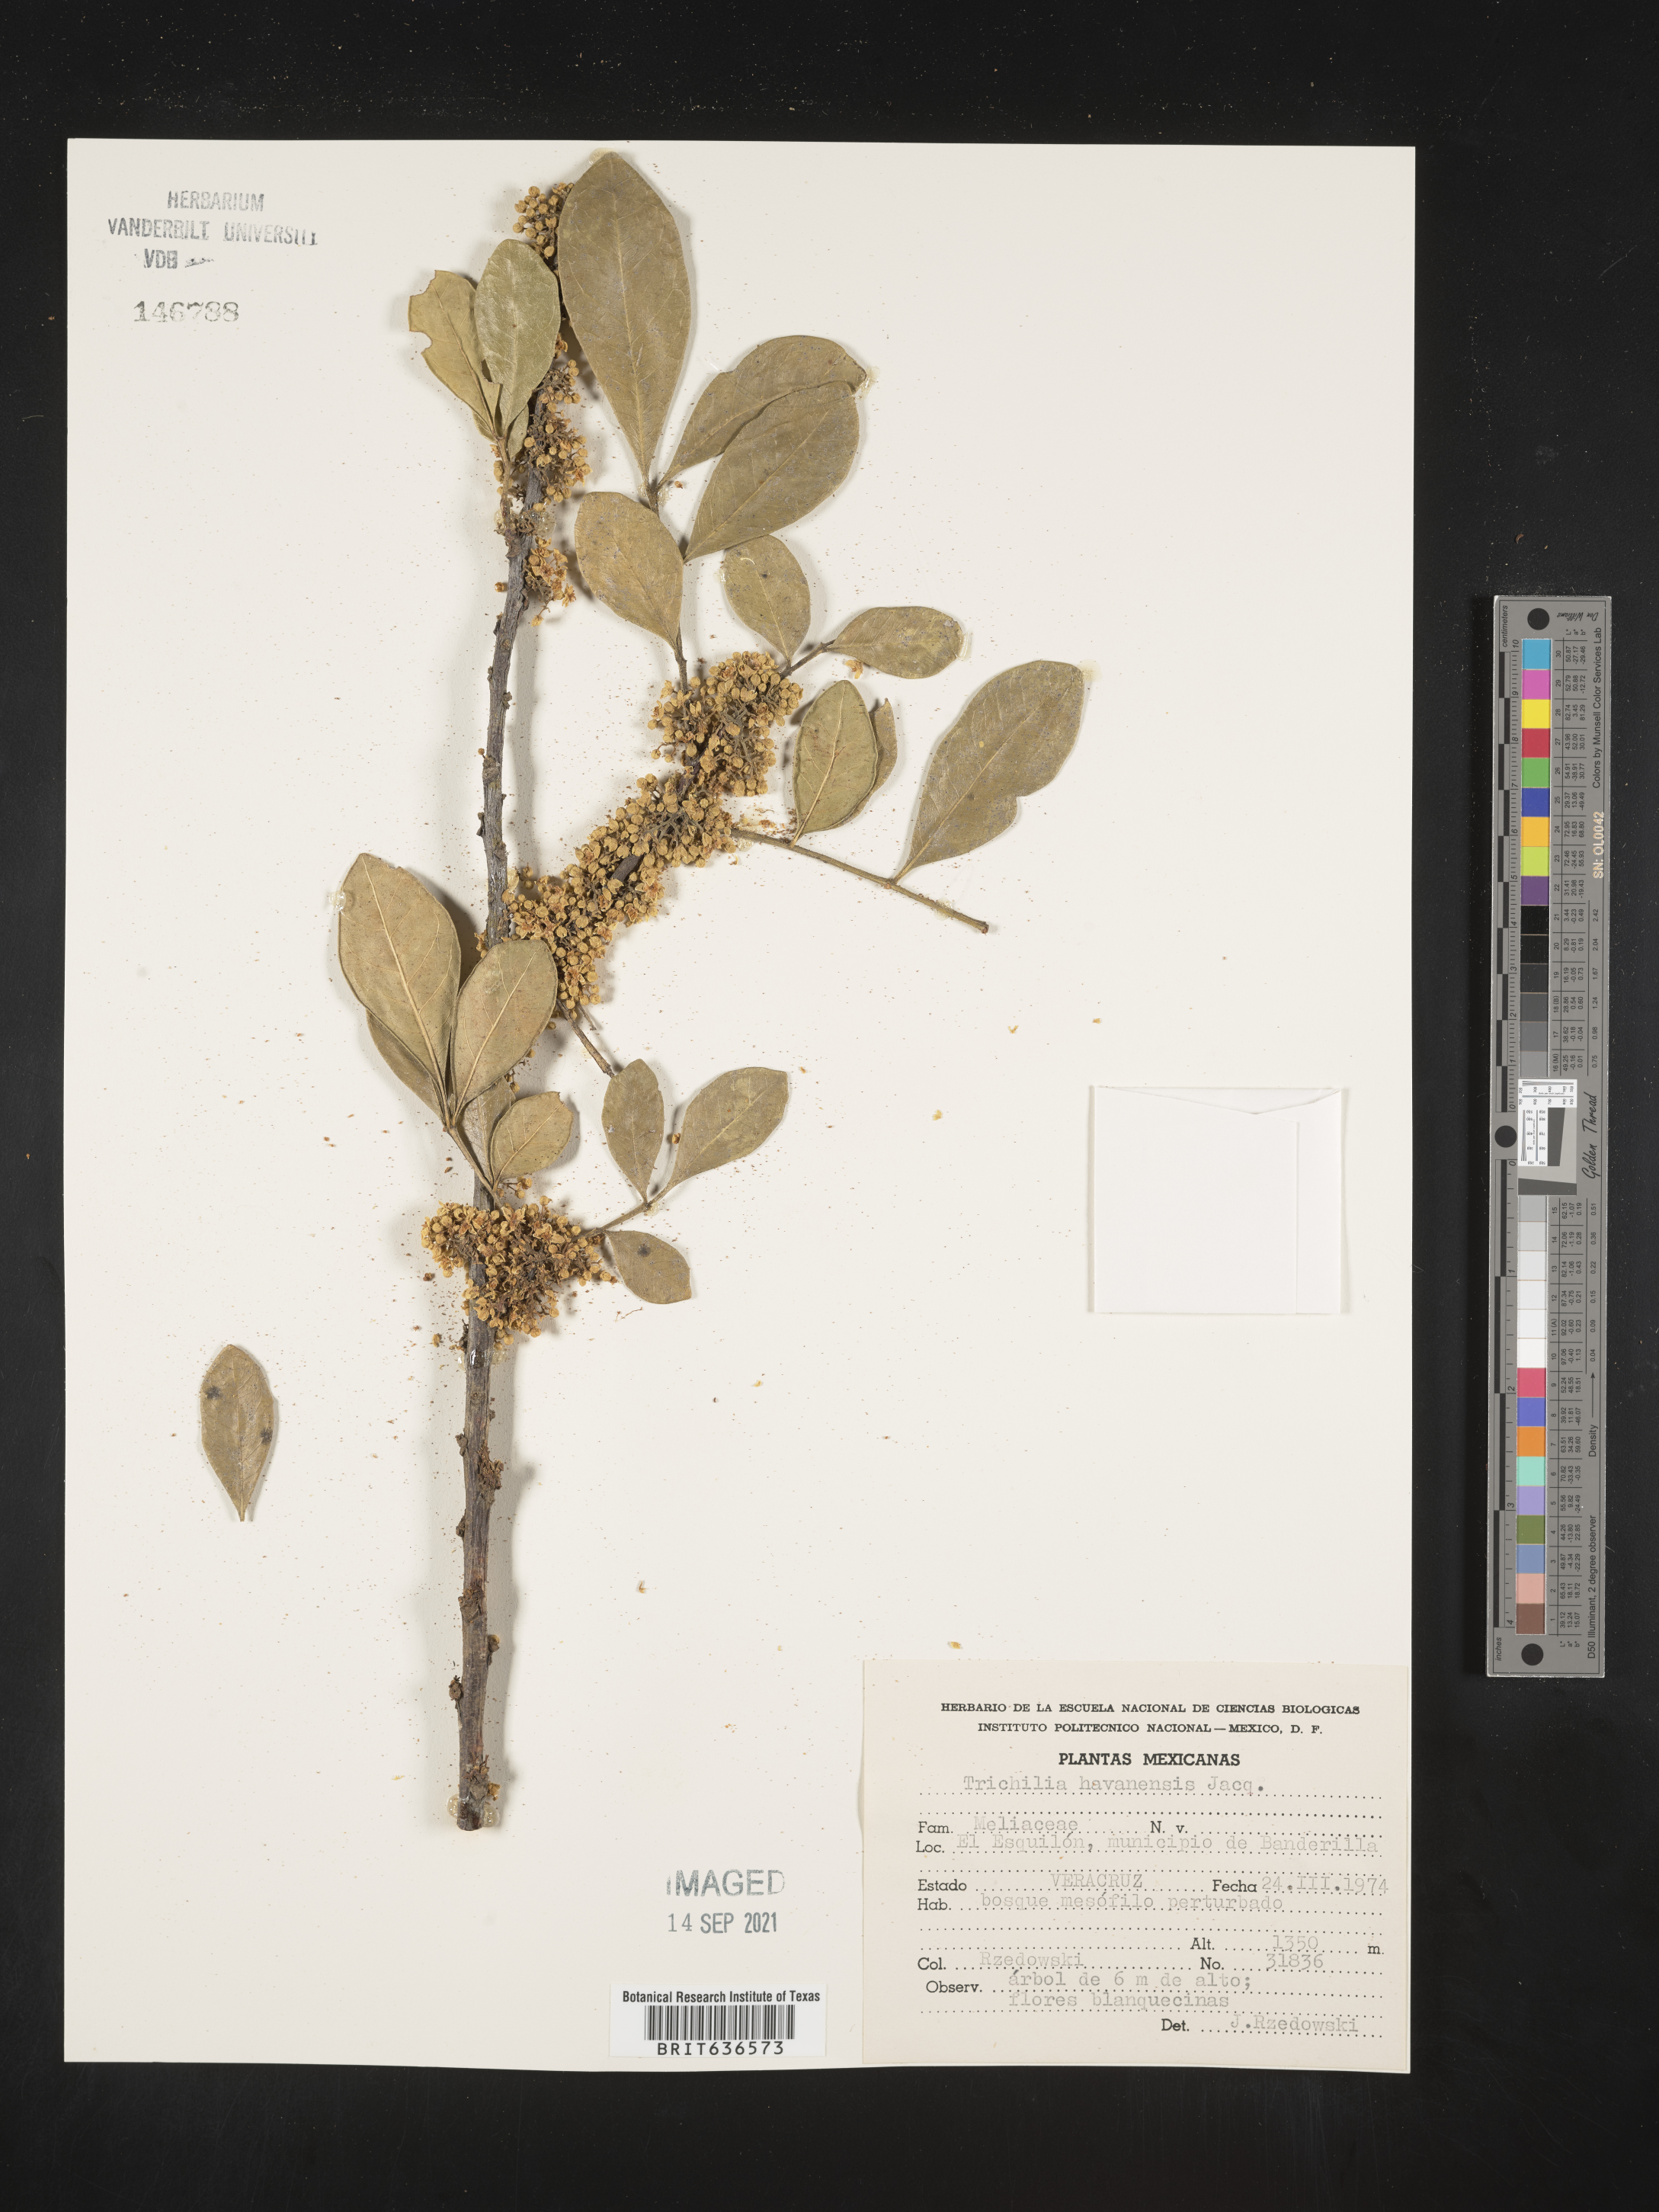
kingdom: Plantae
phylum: Tracheophyta
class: Magnoliopsida
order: Sapindales
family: Meliaceae
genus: Trichilia
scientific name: Trichilia
